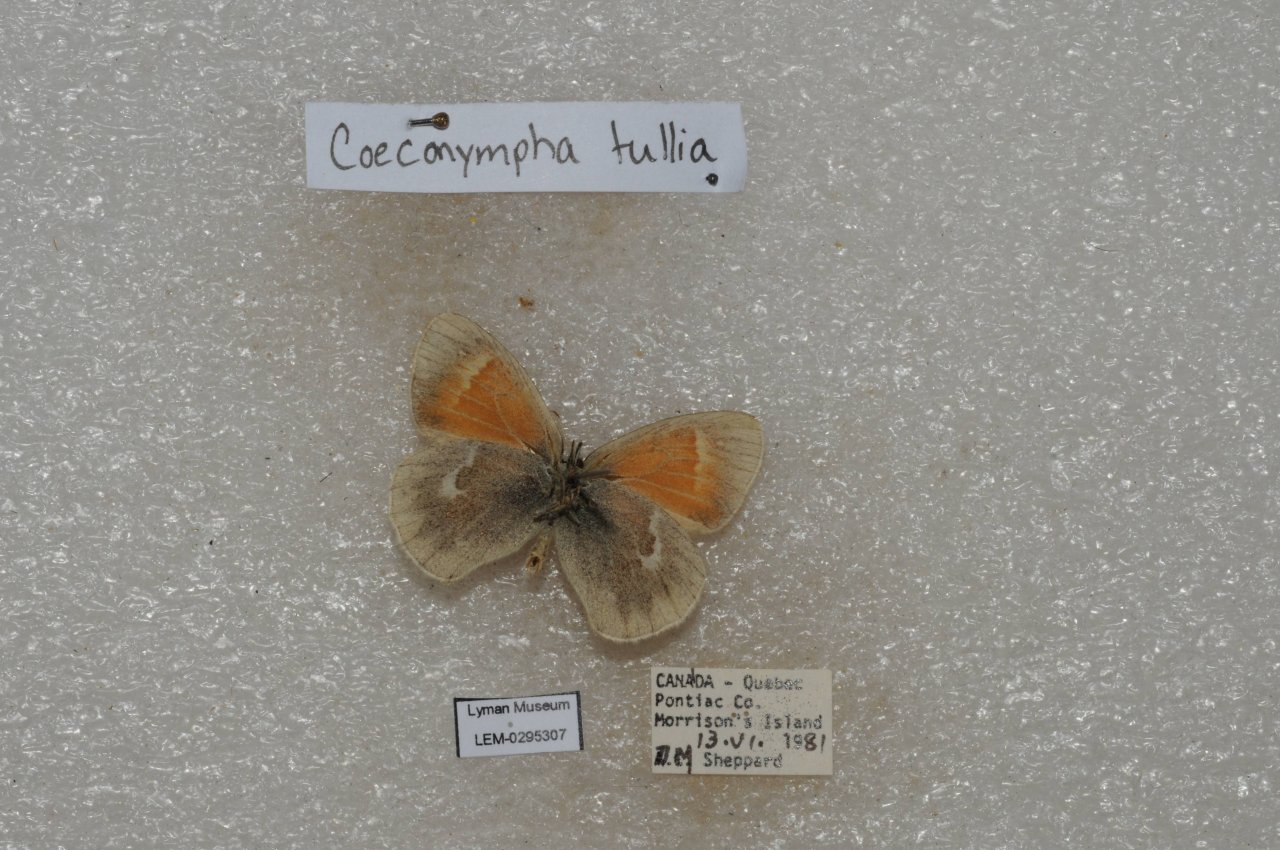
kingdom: Animalia
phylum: Arthropoda
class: Insecta
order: Lepidoptera
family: Nymphalidae
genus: Coenonympha
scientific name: Coenonympha tullia
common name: Large Heath
